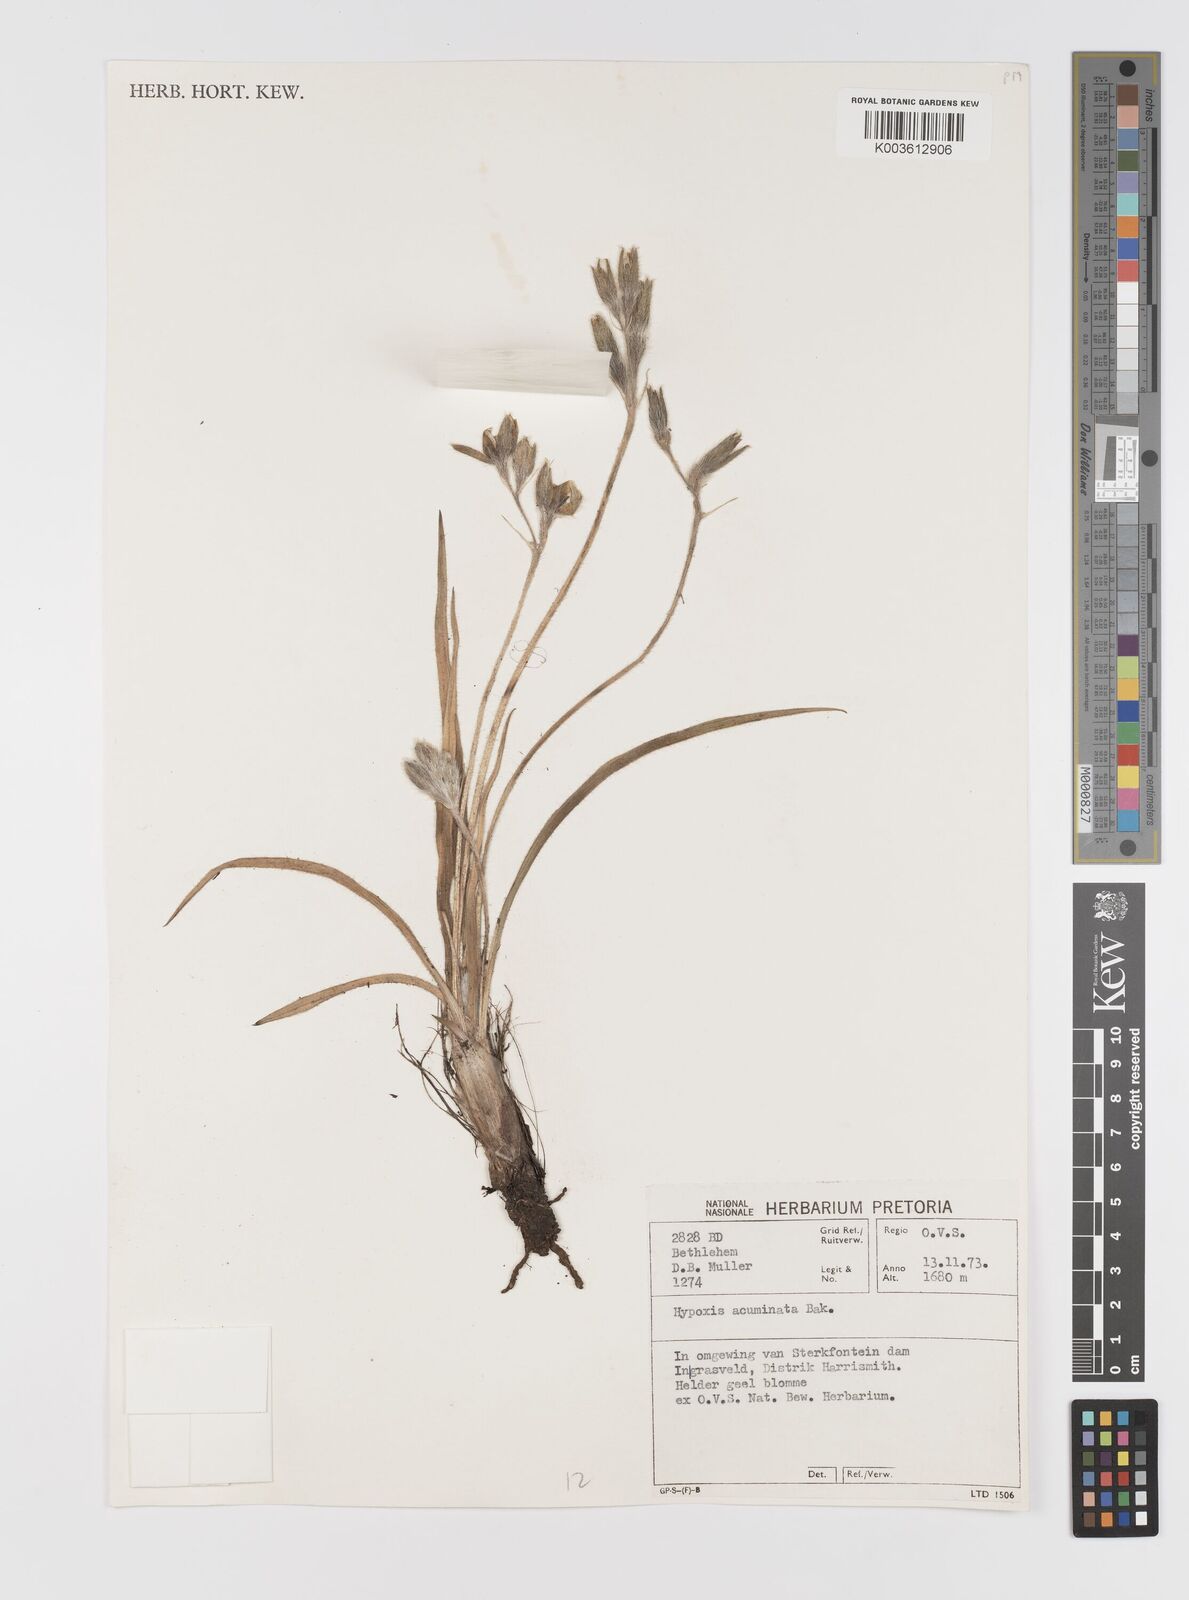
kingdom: Plantae
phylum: Tracheophyta
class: Liliopsida
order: Asparagales
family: Hypoxidaceae
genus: Hypoxis
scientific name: Hypoxis acuminata
